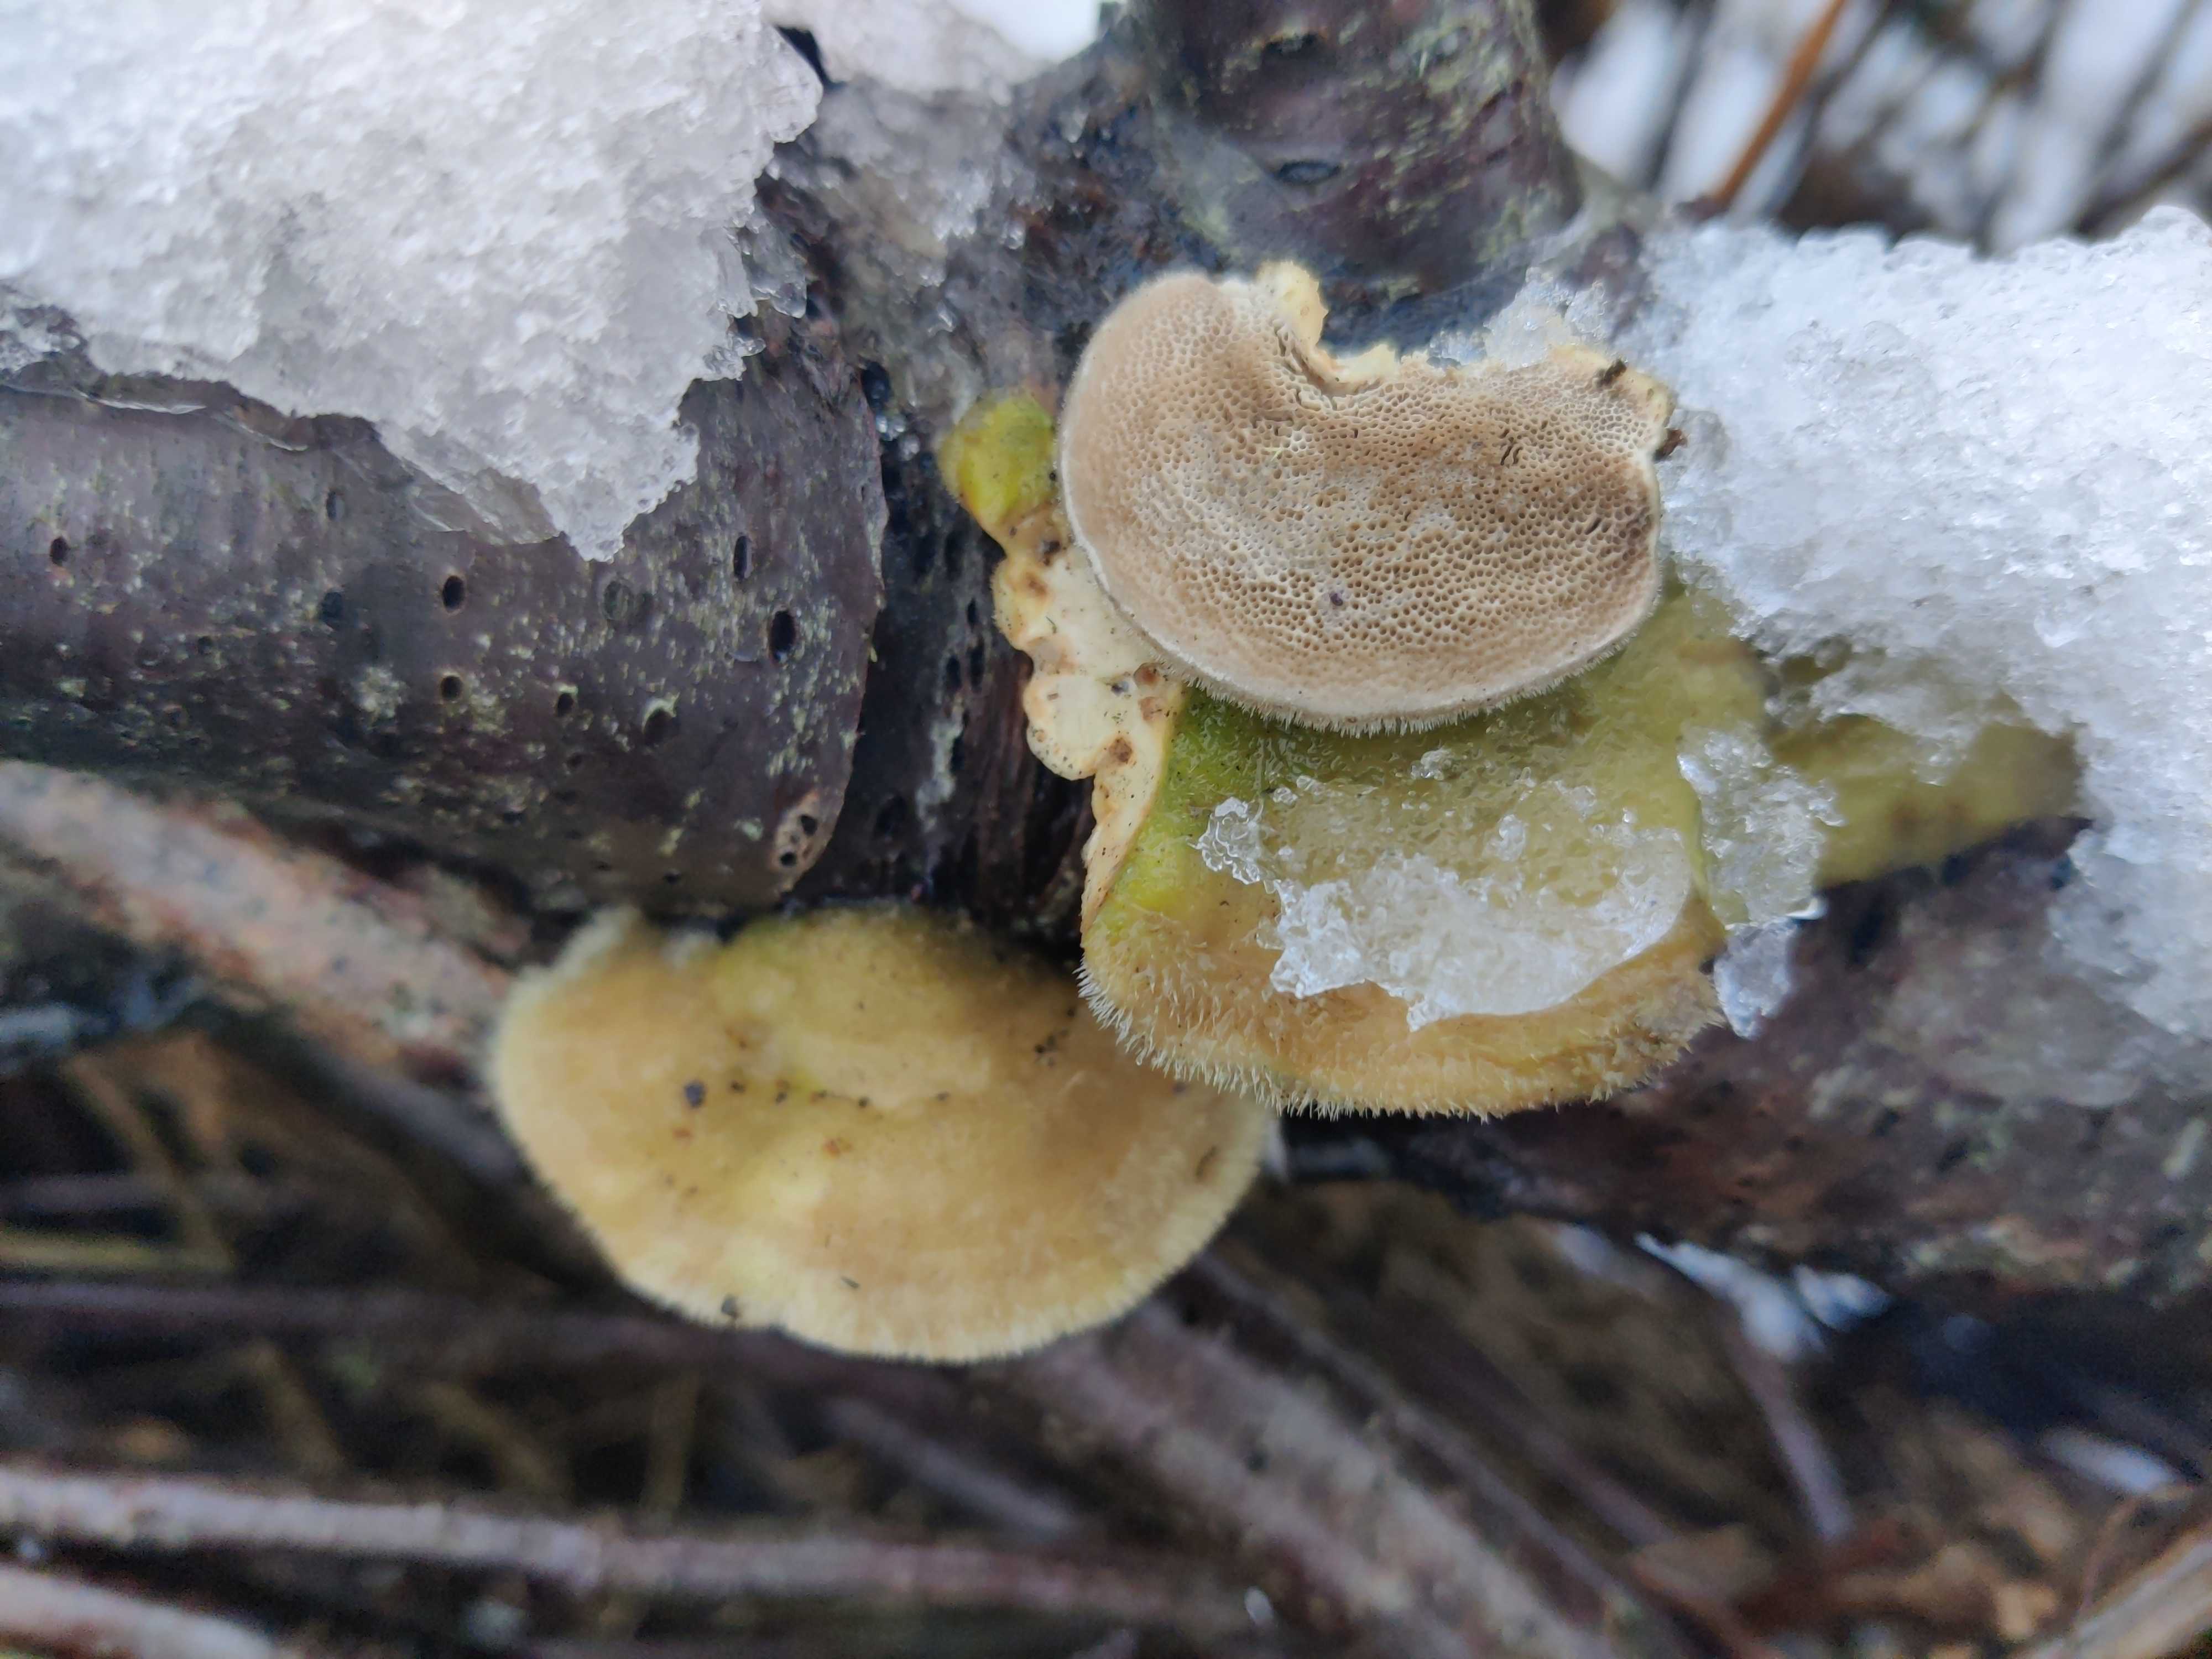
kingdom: Fungi
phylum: Basidiomycota
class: Agaricomycetes
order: Polyporales
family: Polyporaceae
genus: Trametes
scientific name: Trametes hirsuta
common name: håret læderporesvamp
